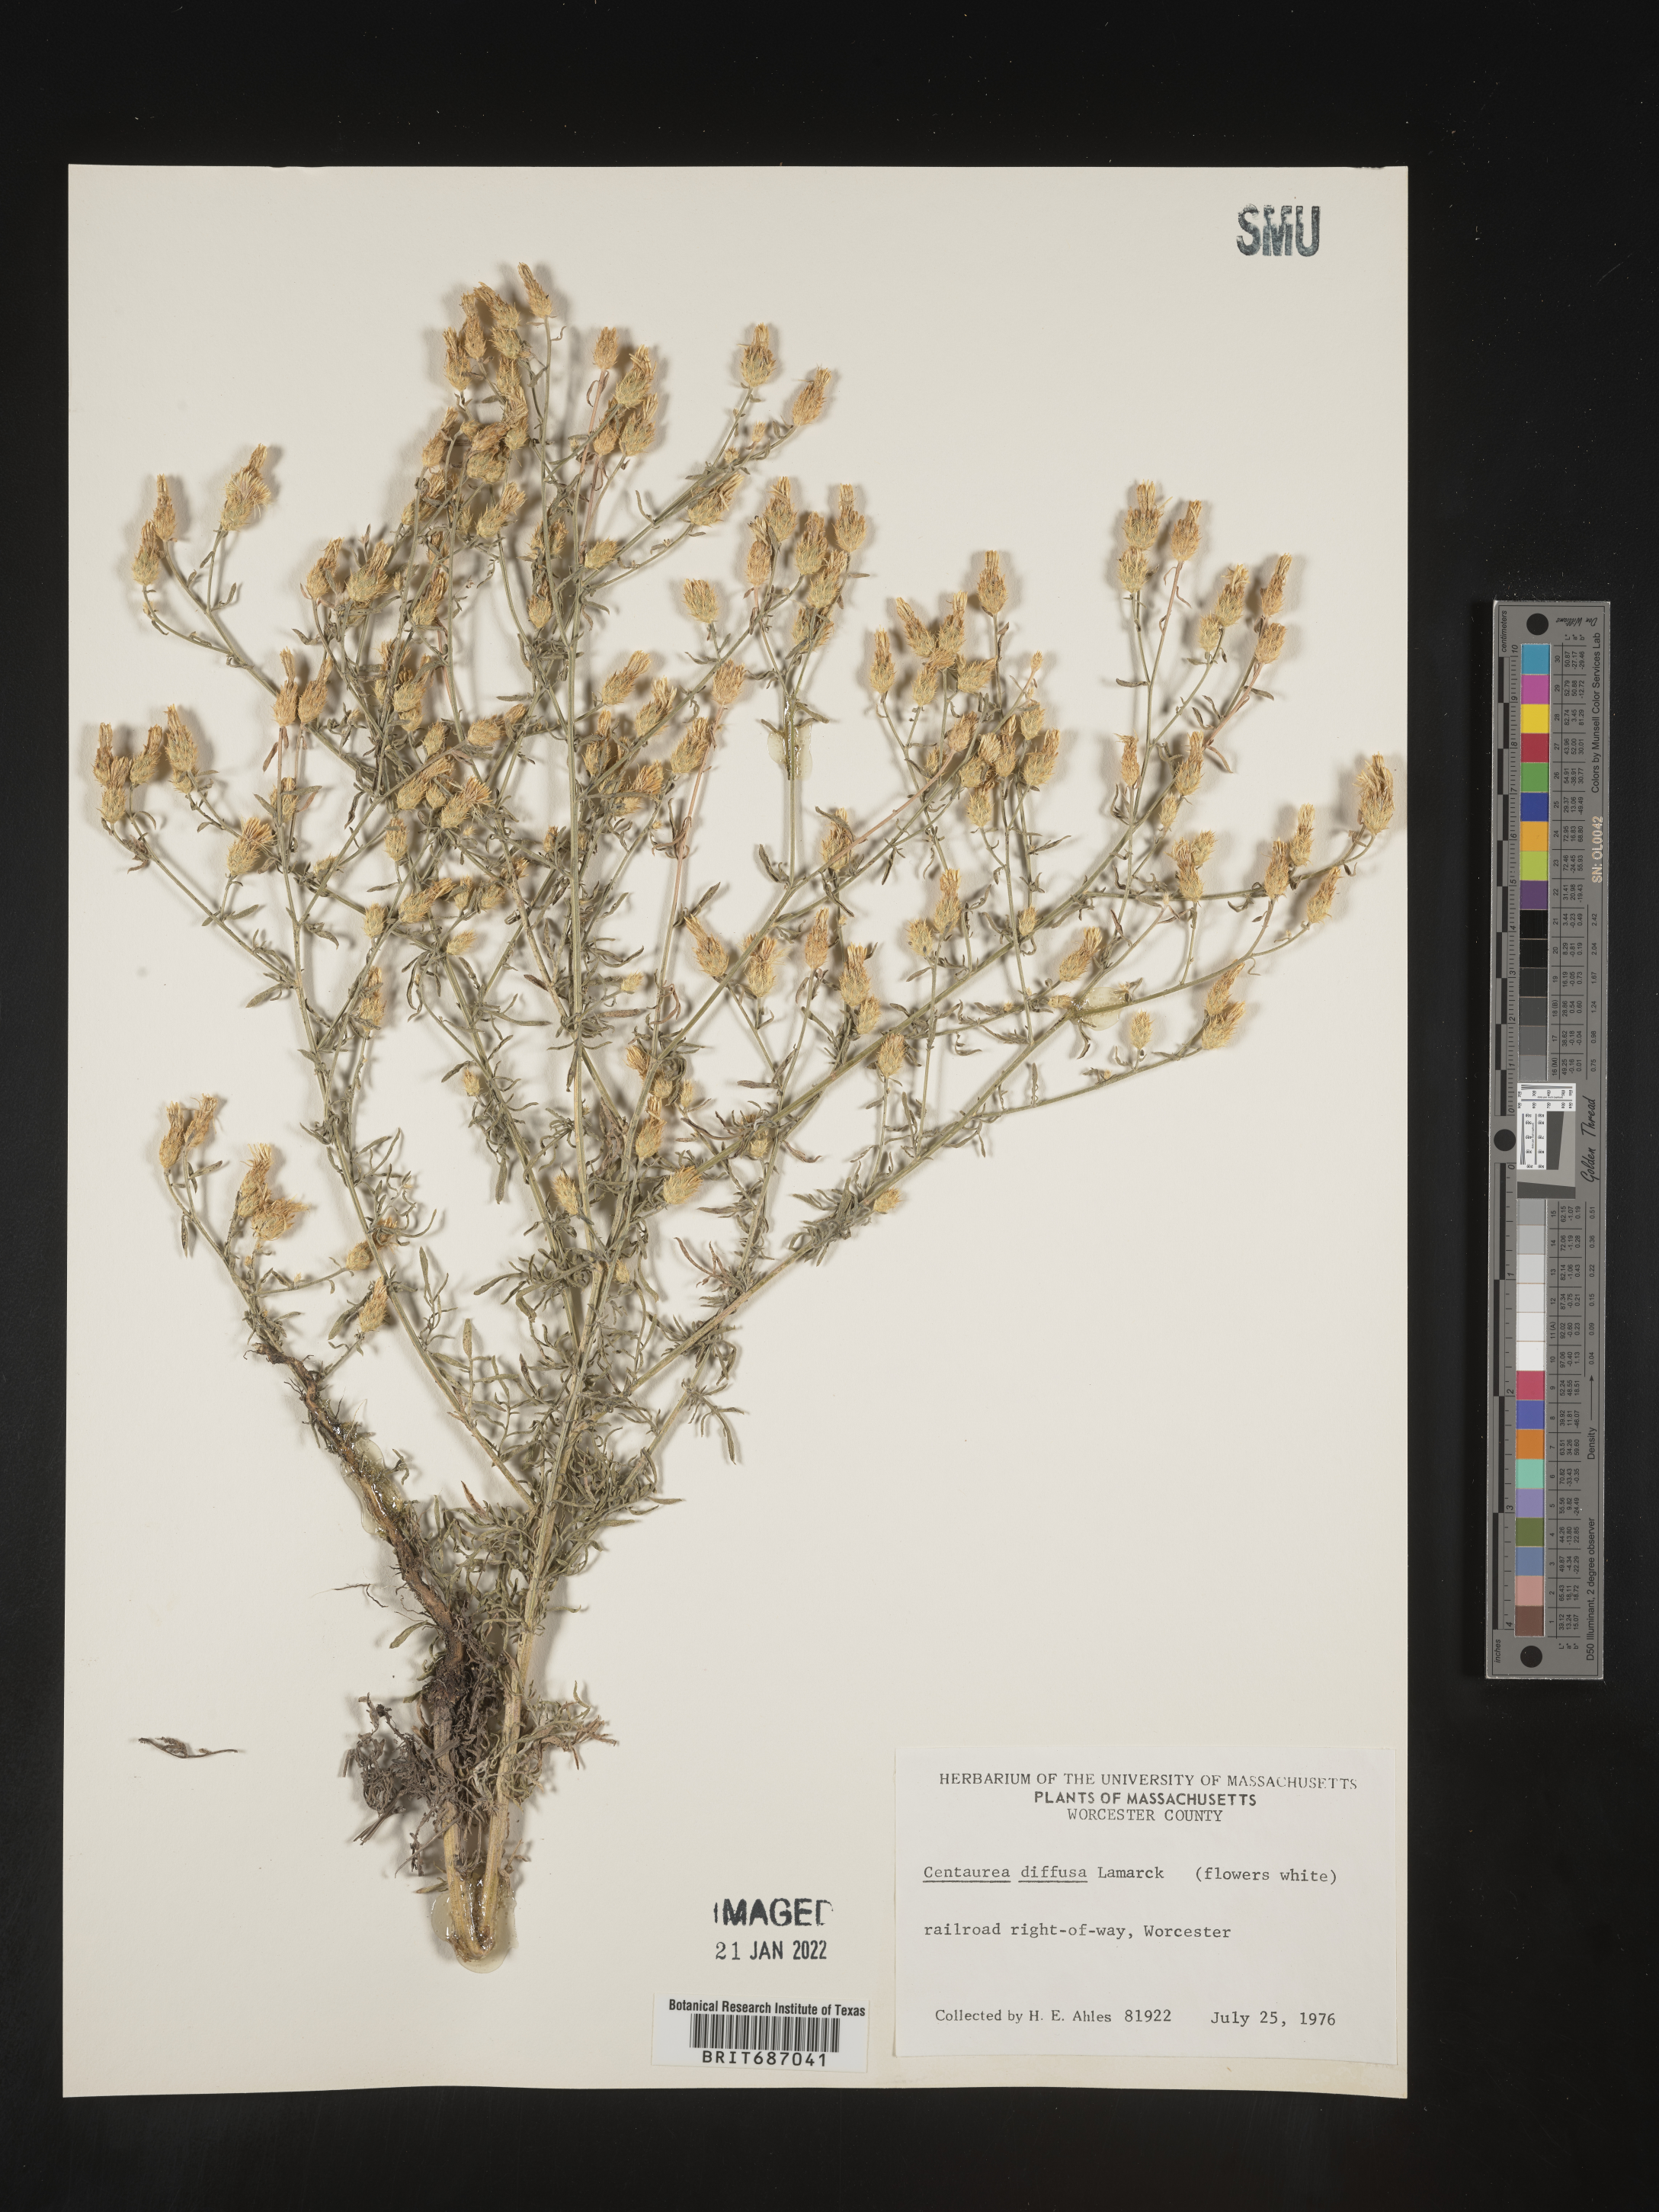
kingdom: Plantae
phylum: Tracheophyta
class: Magnoliopsida
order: Asterales
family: Asteraceae
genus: Centaurea
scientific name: Centaurea diffusa
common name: Diffuse knapweed
